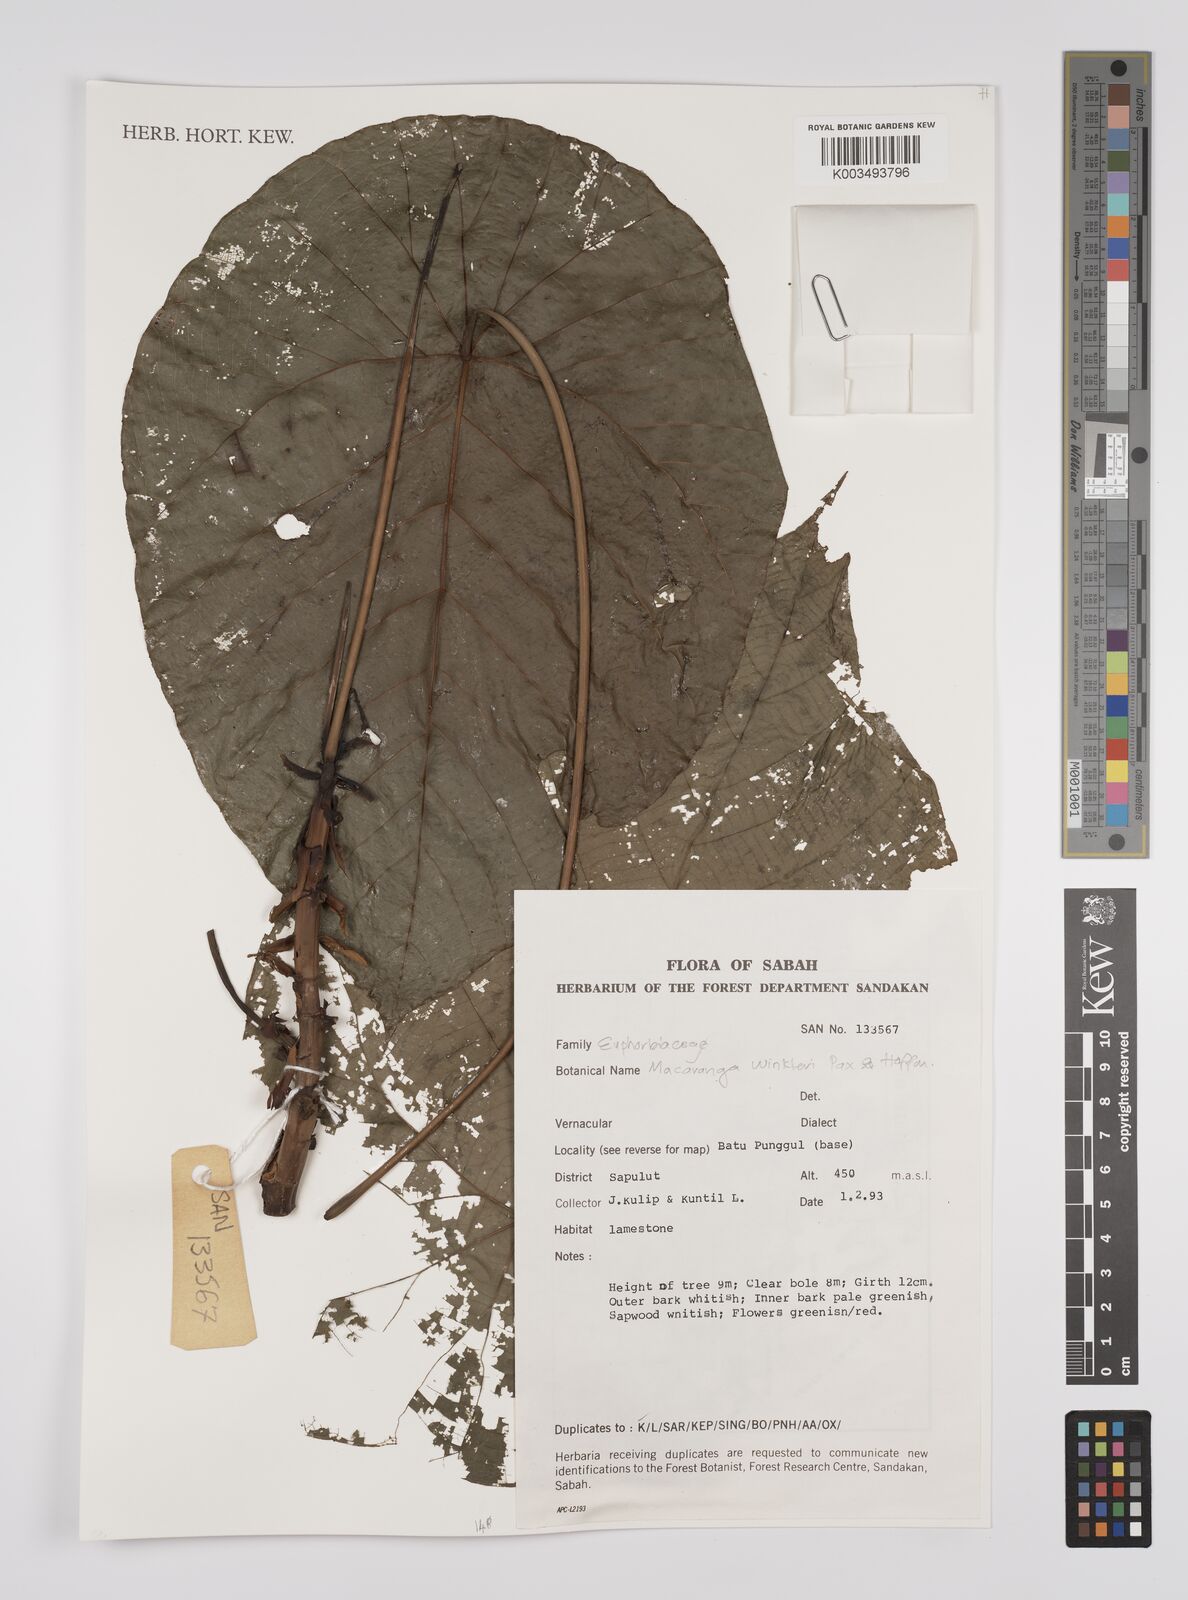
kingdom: Plantae
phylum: Tracheophyta
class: Magnoliopsida
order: Malpighiales
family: Euphorbiaceae
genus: Macaranga
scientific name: Macaranga winkleri
